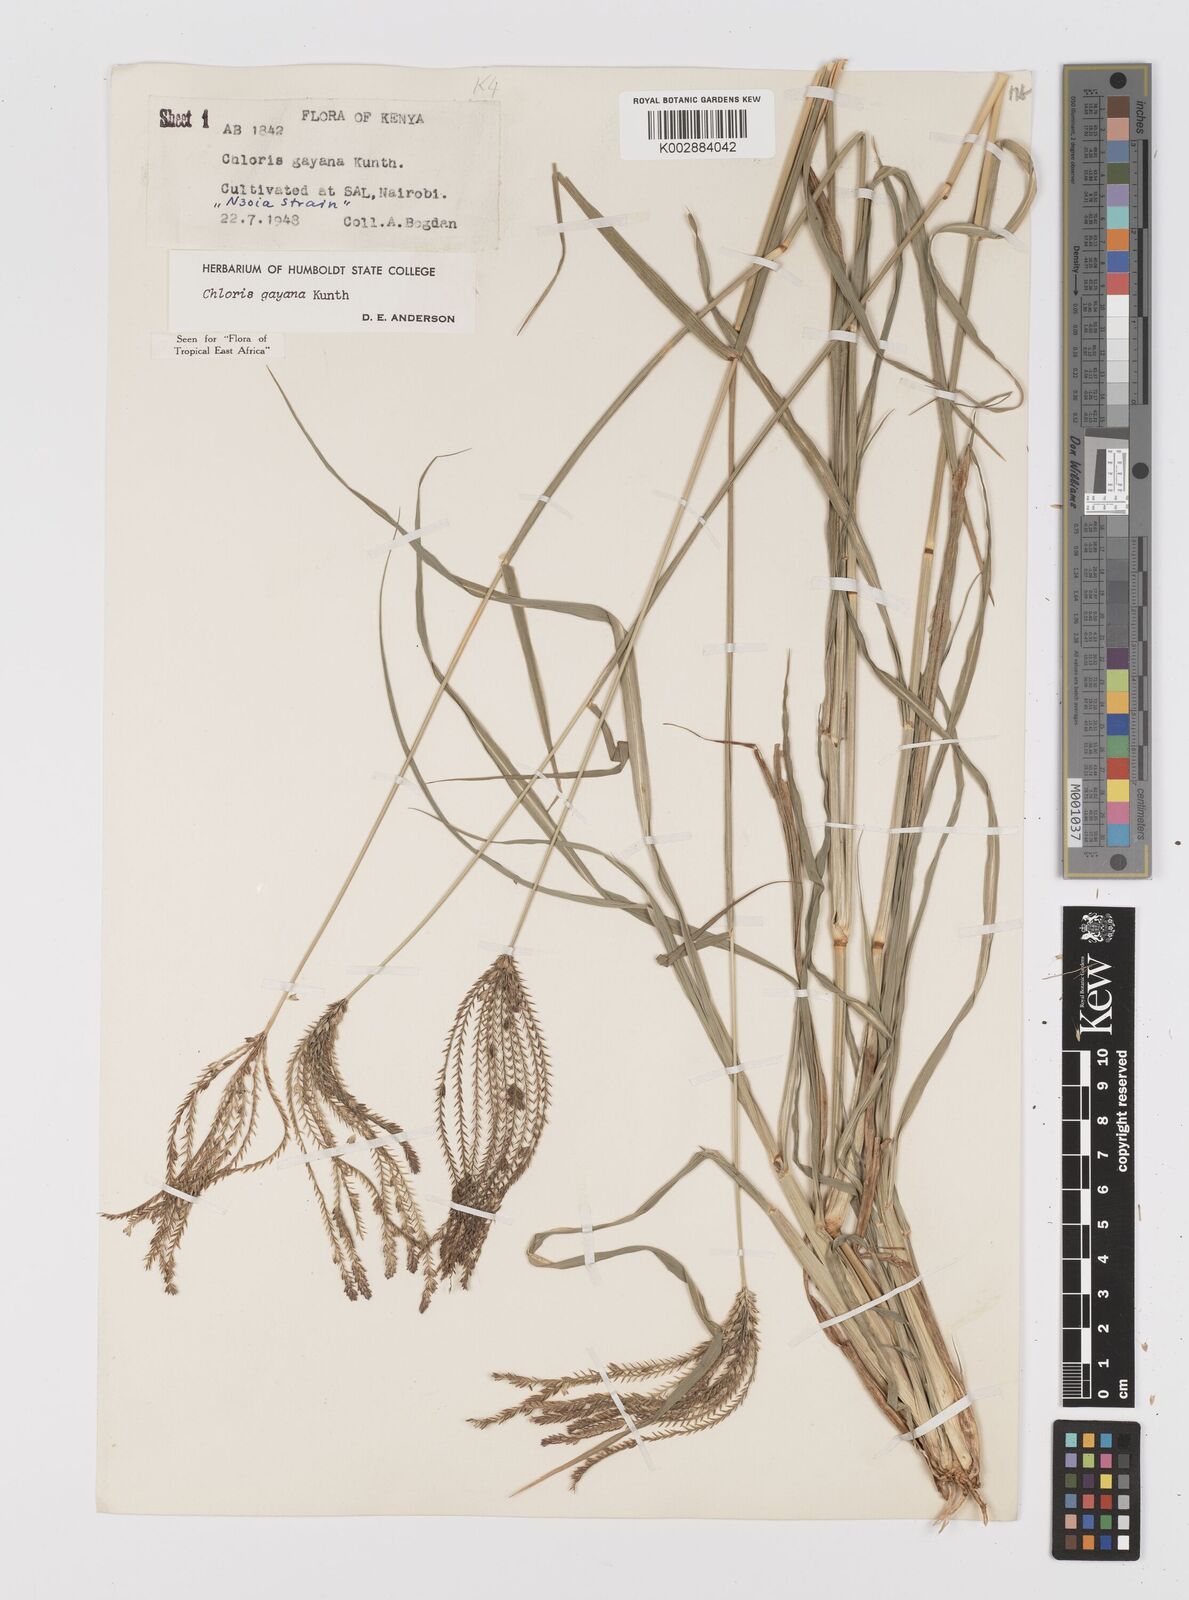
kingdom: Plantae
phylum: Tracheophyta
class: Liliopsida
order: Poales
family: Poaceae
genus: Chloris
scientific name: Chloris gayana
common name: Rhodes grass
